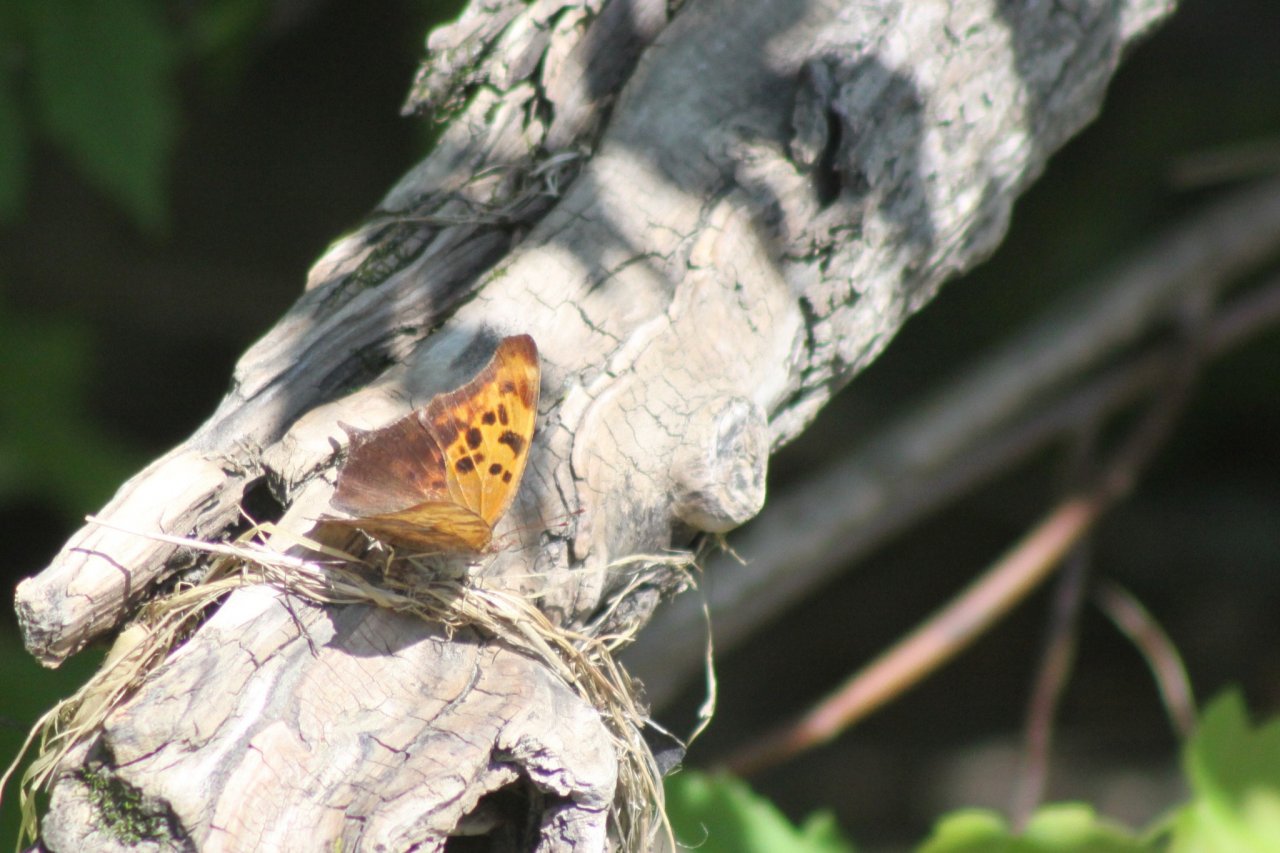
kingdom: Animalia
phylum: Arthropoda
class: Insecta
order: Lepidoptera
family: Nymphalidae
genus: Polygonia
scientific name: Polygonia interrogationis
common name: Question Mark
